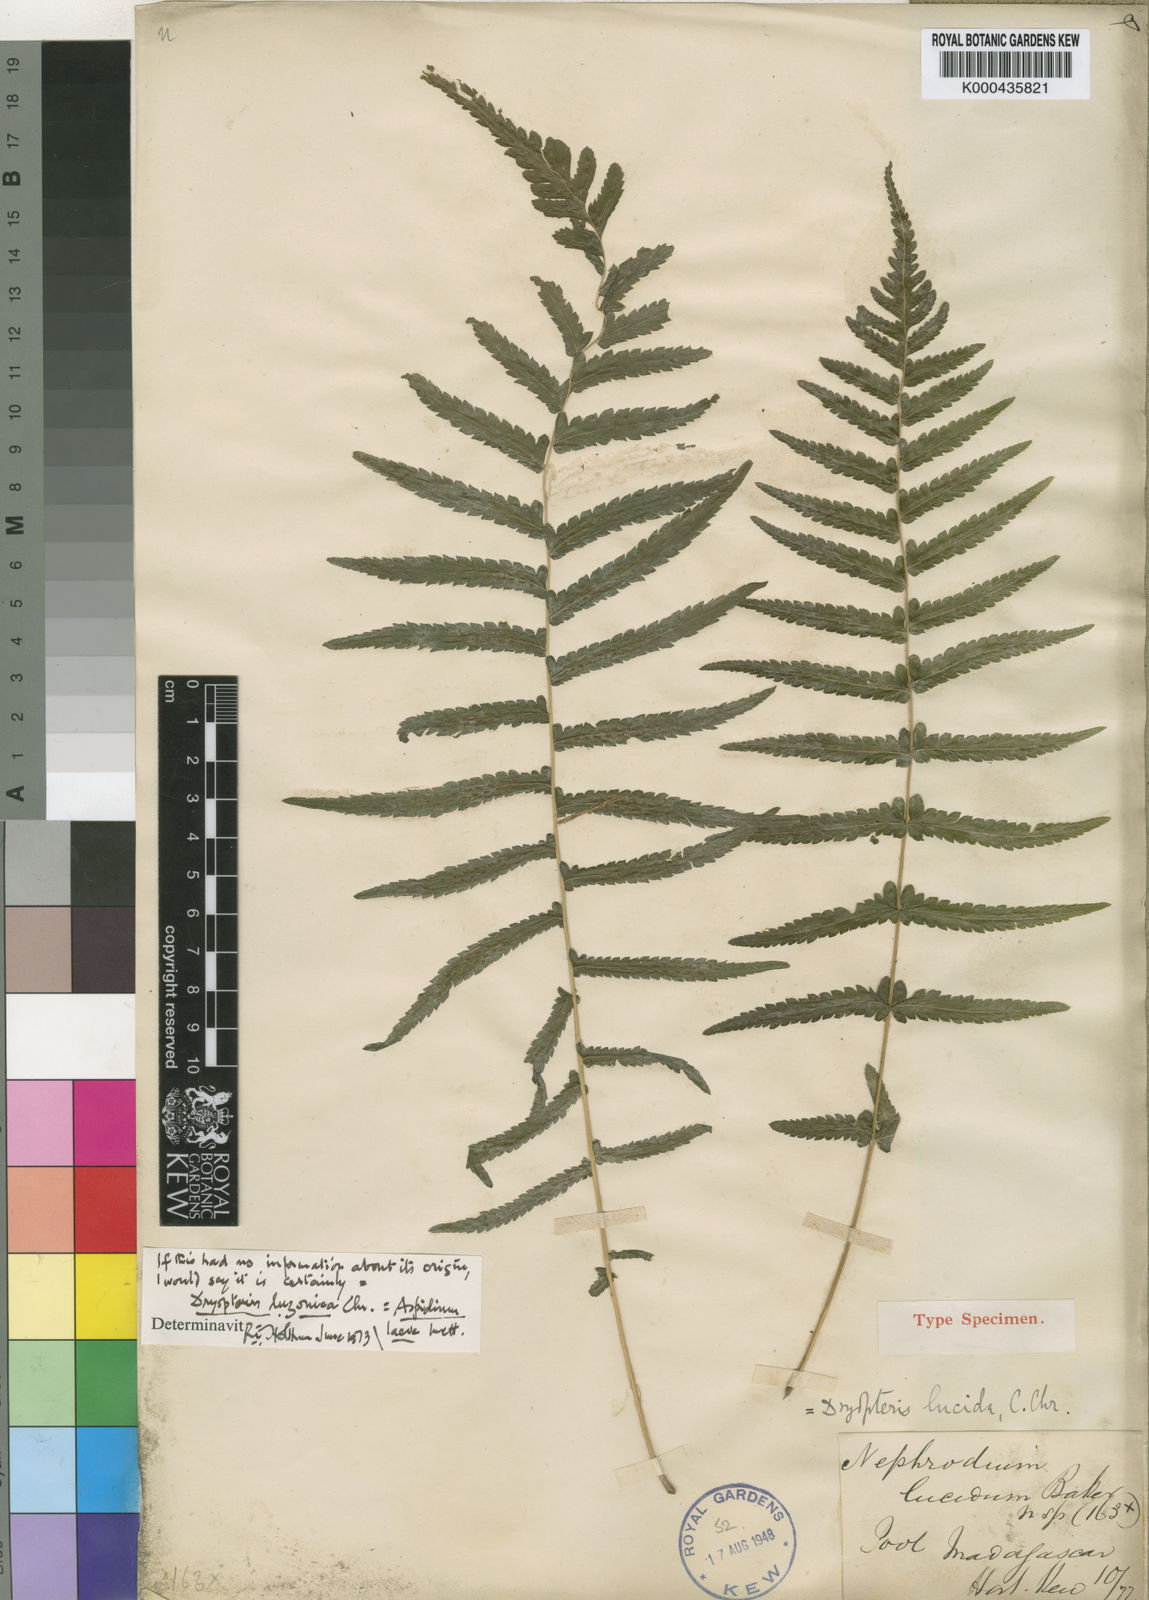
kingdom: Plantae
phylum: Tracheophyta
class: Polypodiopsida
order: Polypodiales
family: Thelypteridaceae
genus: Reholttumia
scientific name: Reholttumia laevis
